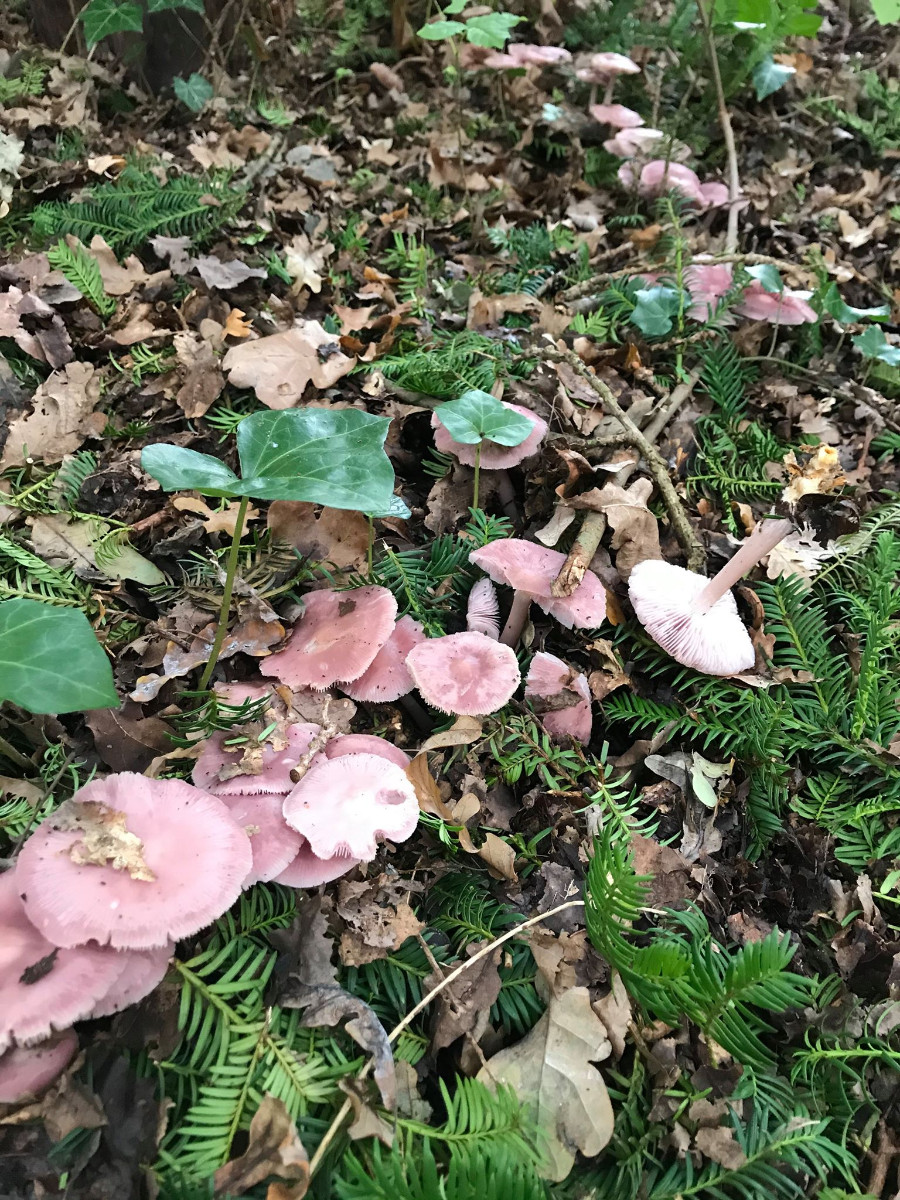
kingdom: Fungi
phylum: Basidiomycota
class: Agaricomycetes
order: Agaricales
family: Mycenaceae
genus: Mycena
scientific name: Mycena rosea
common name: rosa huesvamp
